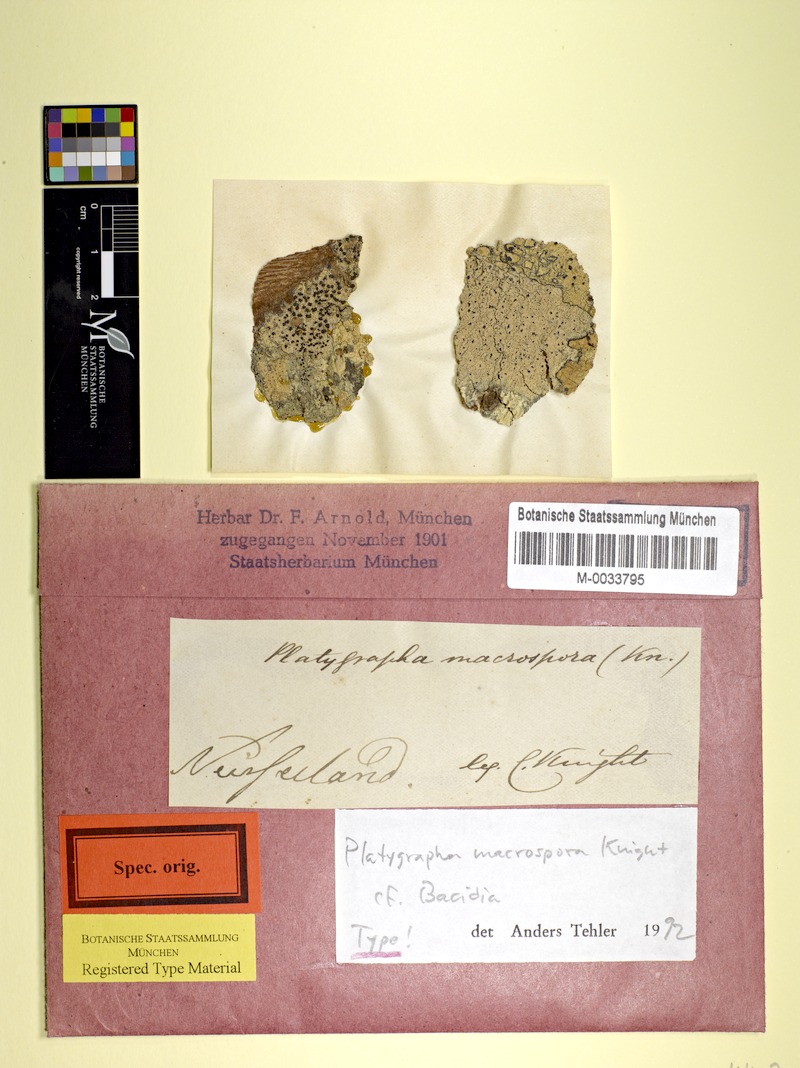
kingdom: Fungi
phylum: Ascomycota
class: Lecanoromycetes
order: Lecanorales
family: Ramalinaceae
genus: Bacidia
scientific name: Bacidia macrospora
